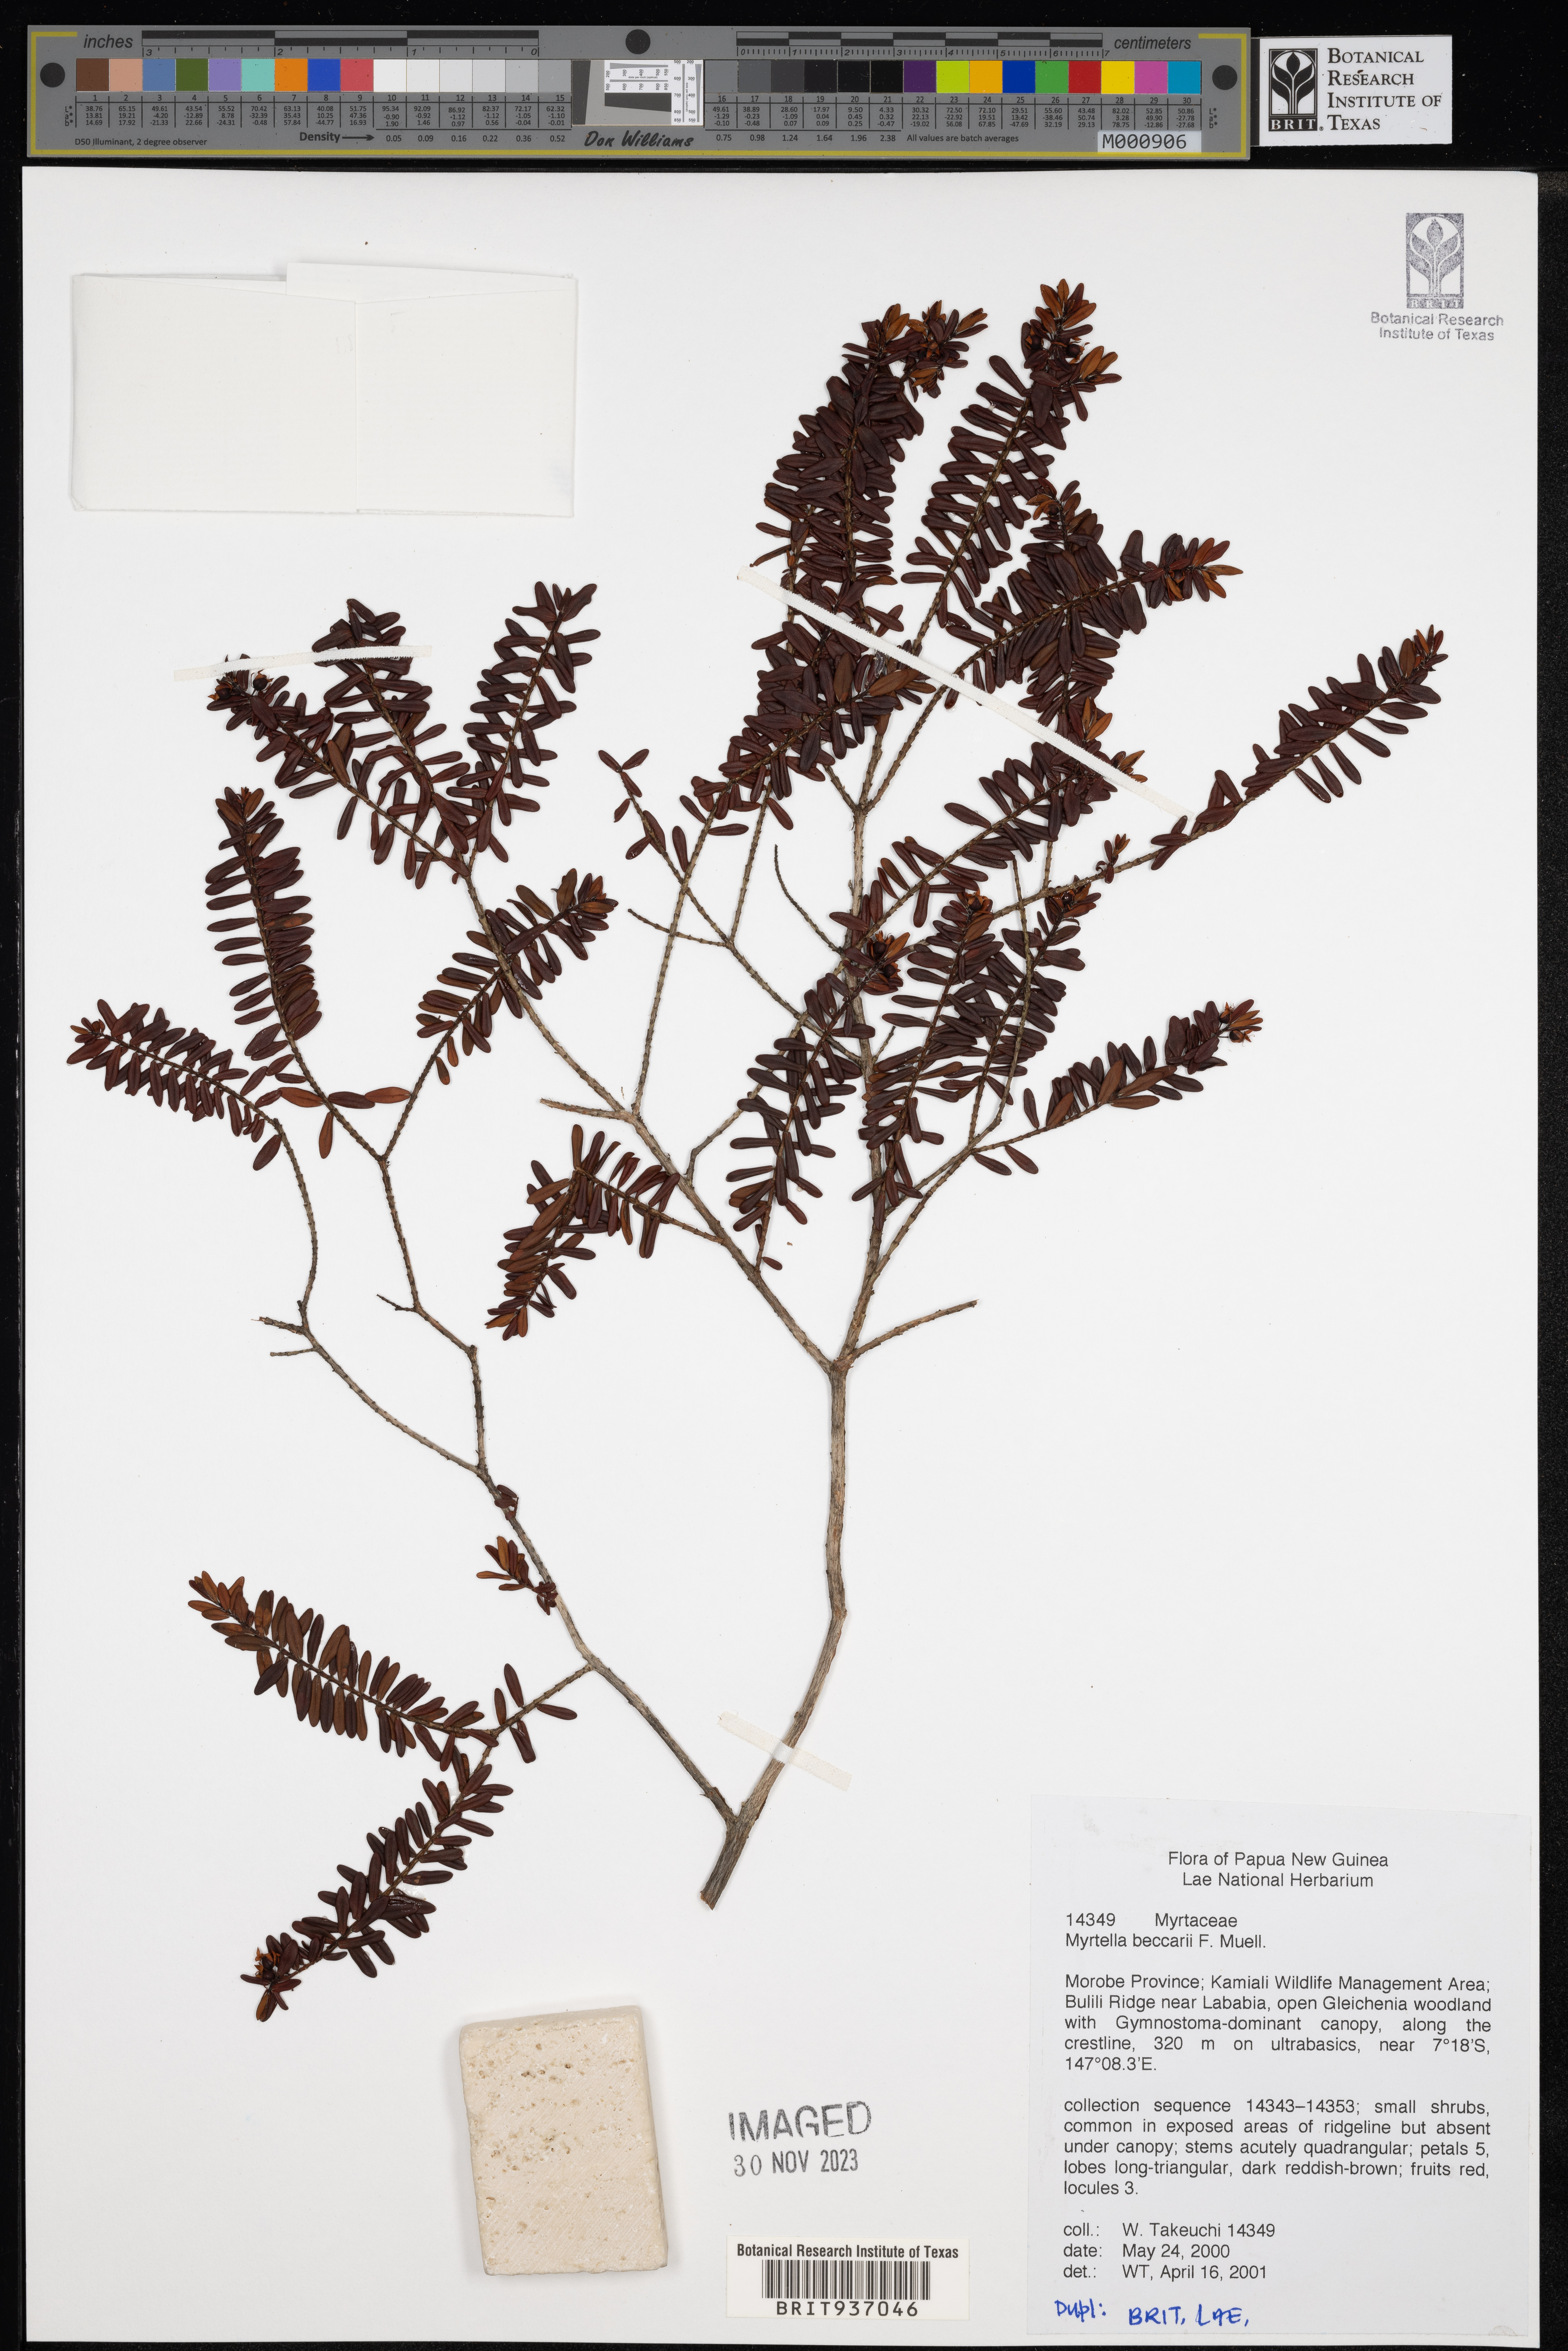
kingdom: Plantae
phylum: Tracheophyta
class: Magnoliopsida
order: Myrtales
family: Myrtaceae
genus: Myrtella
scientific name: Myrtella
